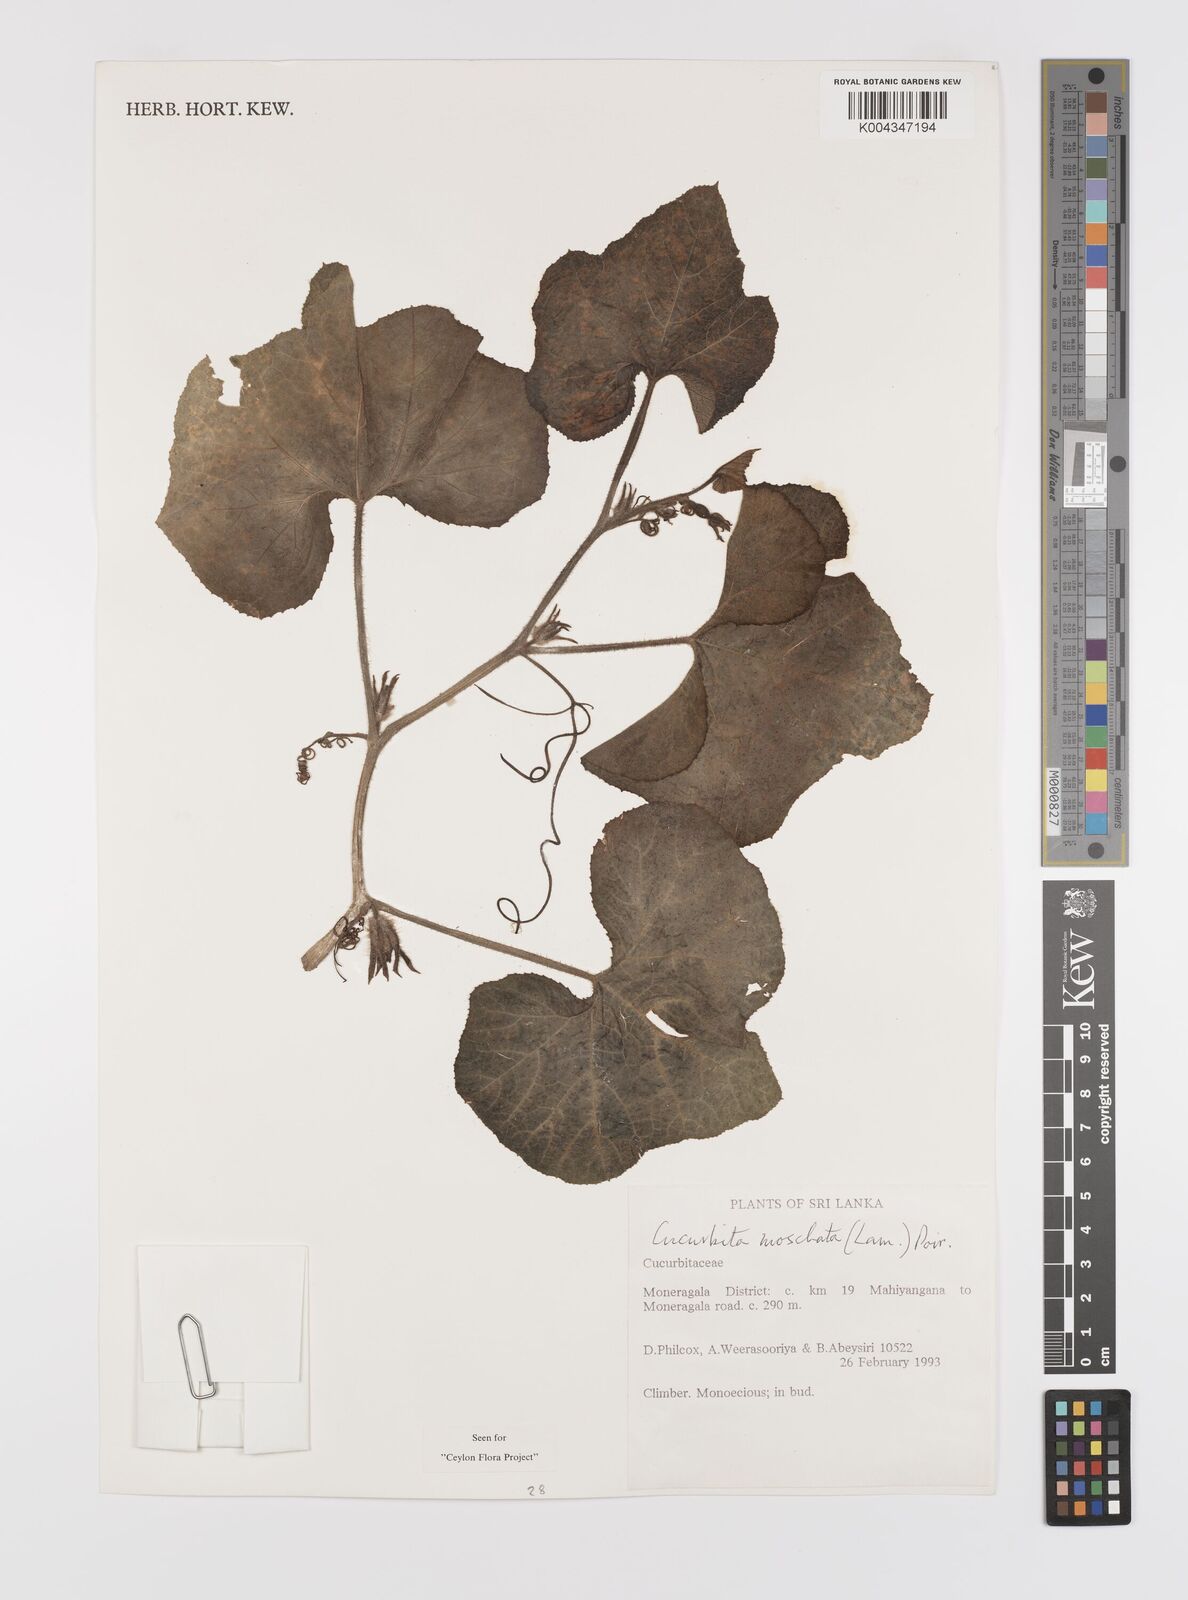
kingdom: Plantae
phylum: Tracheophyta
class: Magnoliopsida
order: Cucurbitales
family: Cucurbitaceae
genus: Cucurbita
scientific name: Cucurbita moschata
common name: Squash / pumpkin
